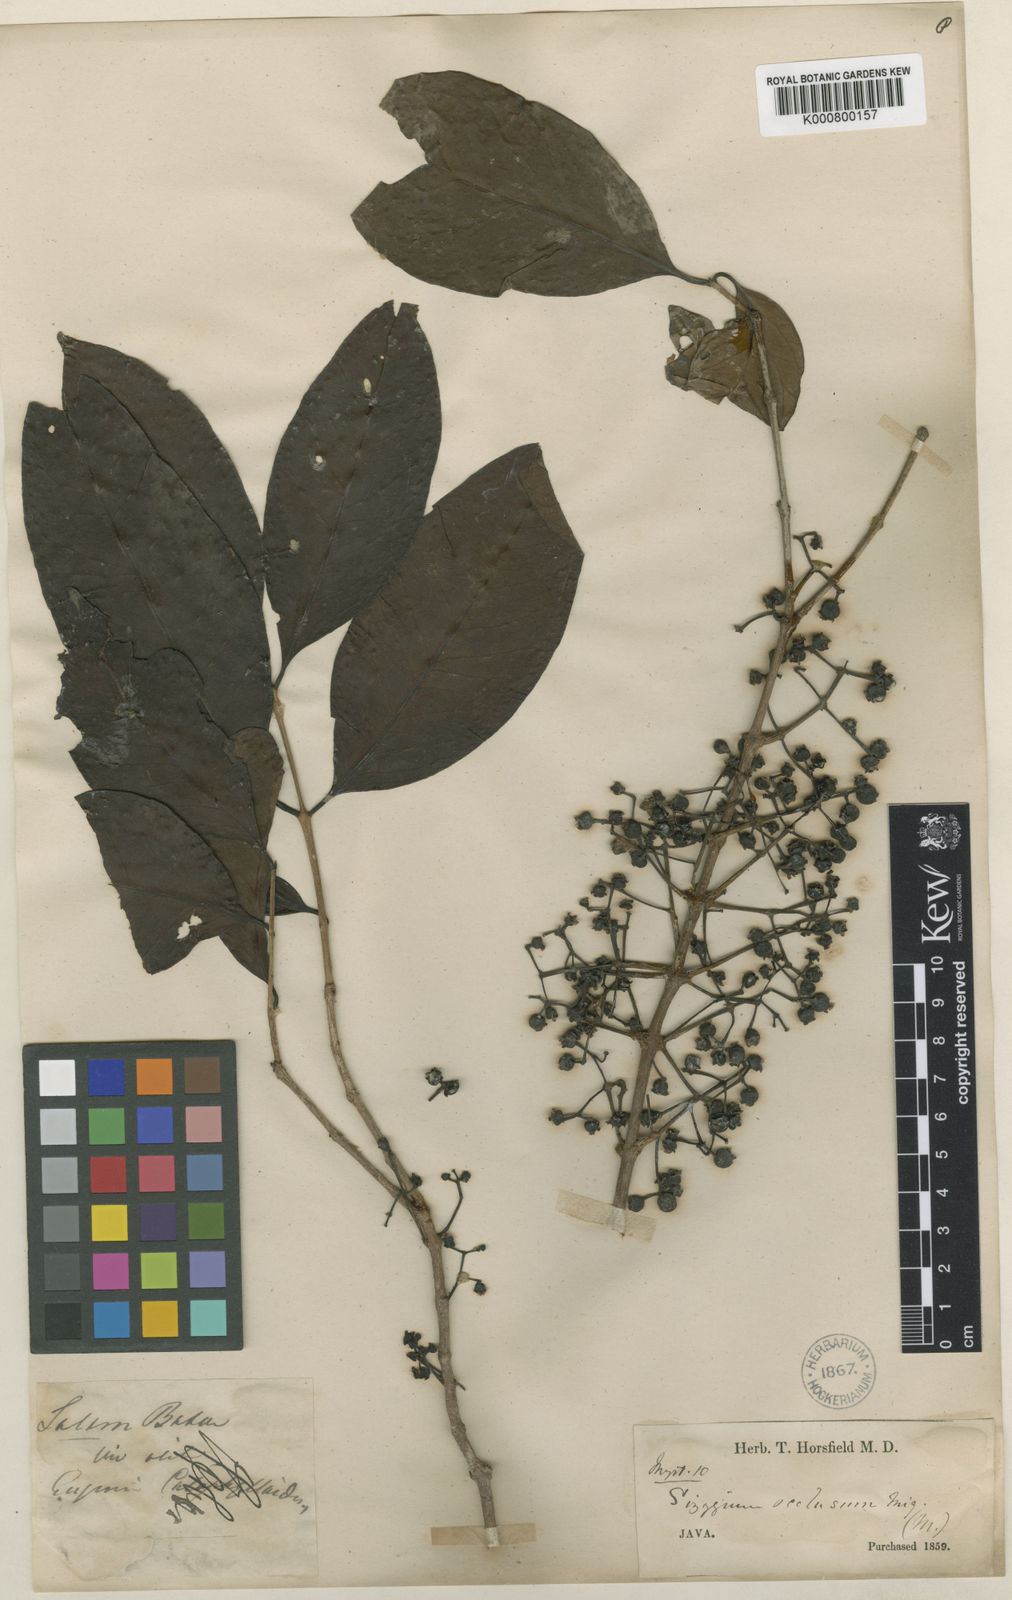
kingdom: Plantae
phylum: Tracheophyta
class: Magnoliopsida
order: Myrtales
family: Myrtaceae
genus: Syzygium
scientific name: Syzygium occlusum
